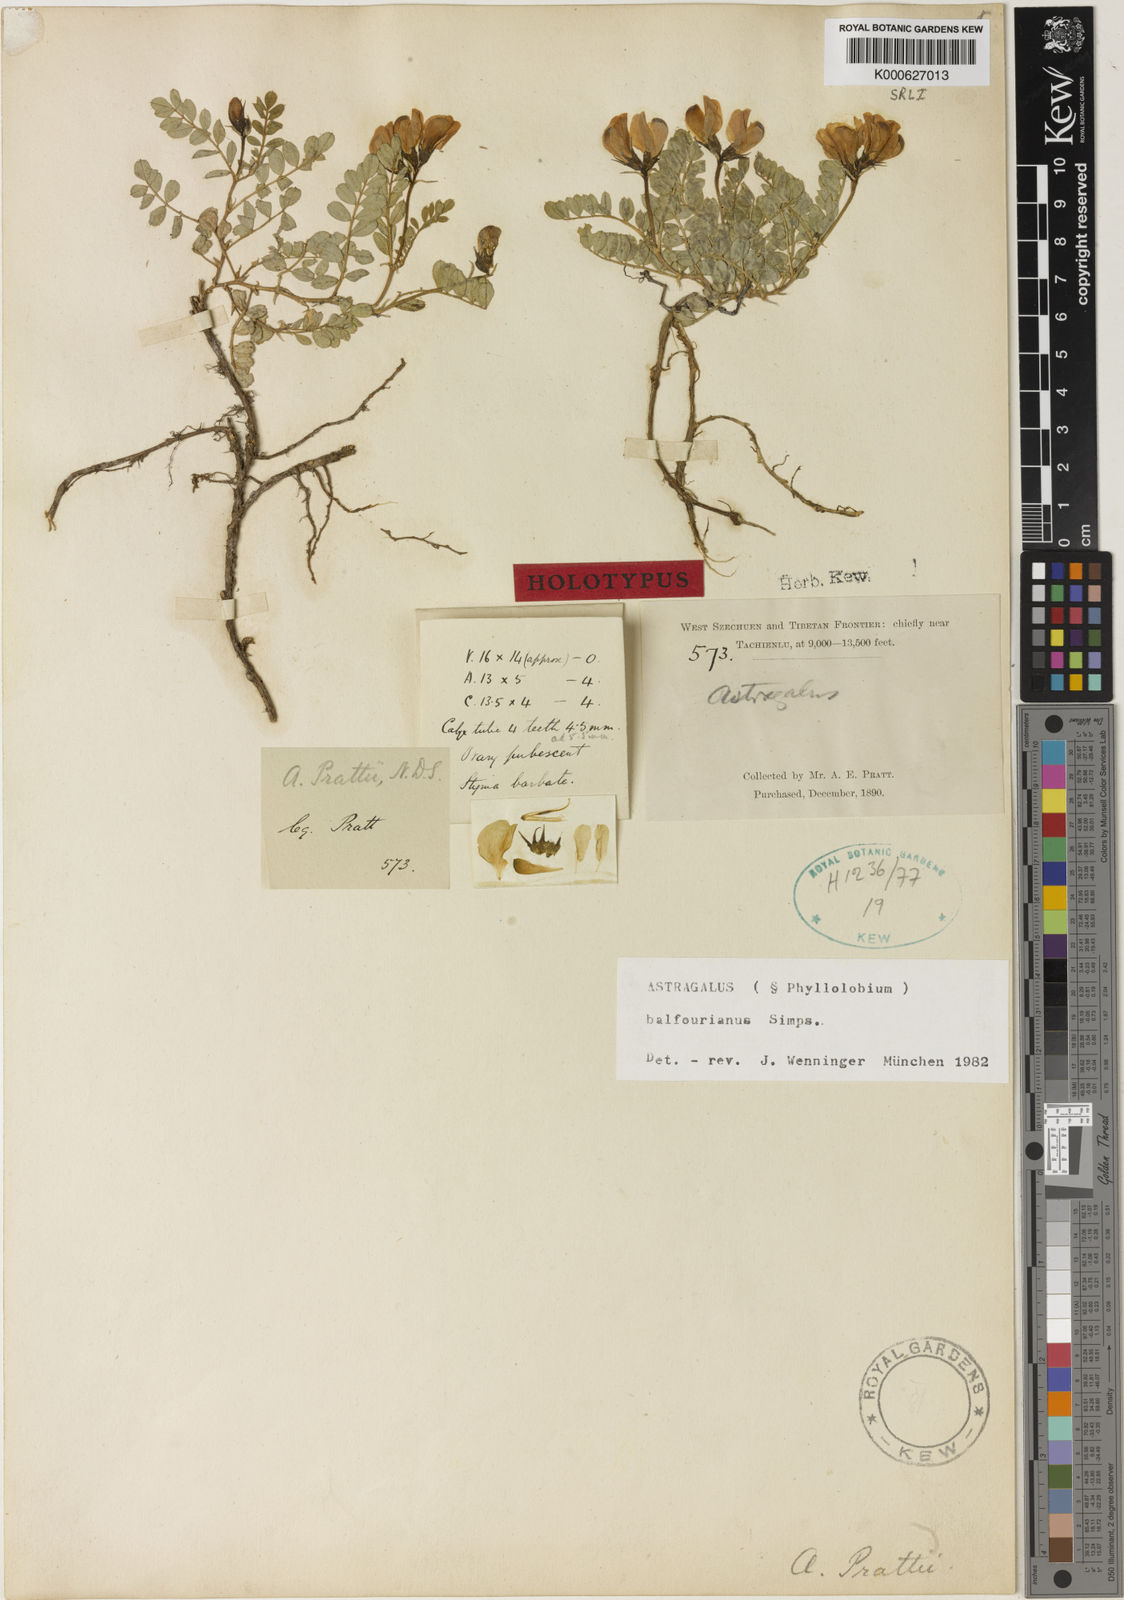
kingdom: Plantae
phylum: Tracheophyta
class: Magnoliopsida
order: Fabales
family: Fabaceae
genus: Astragalus
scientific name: Astragalus
